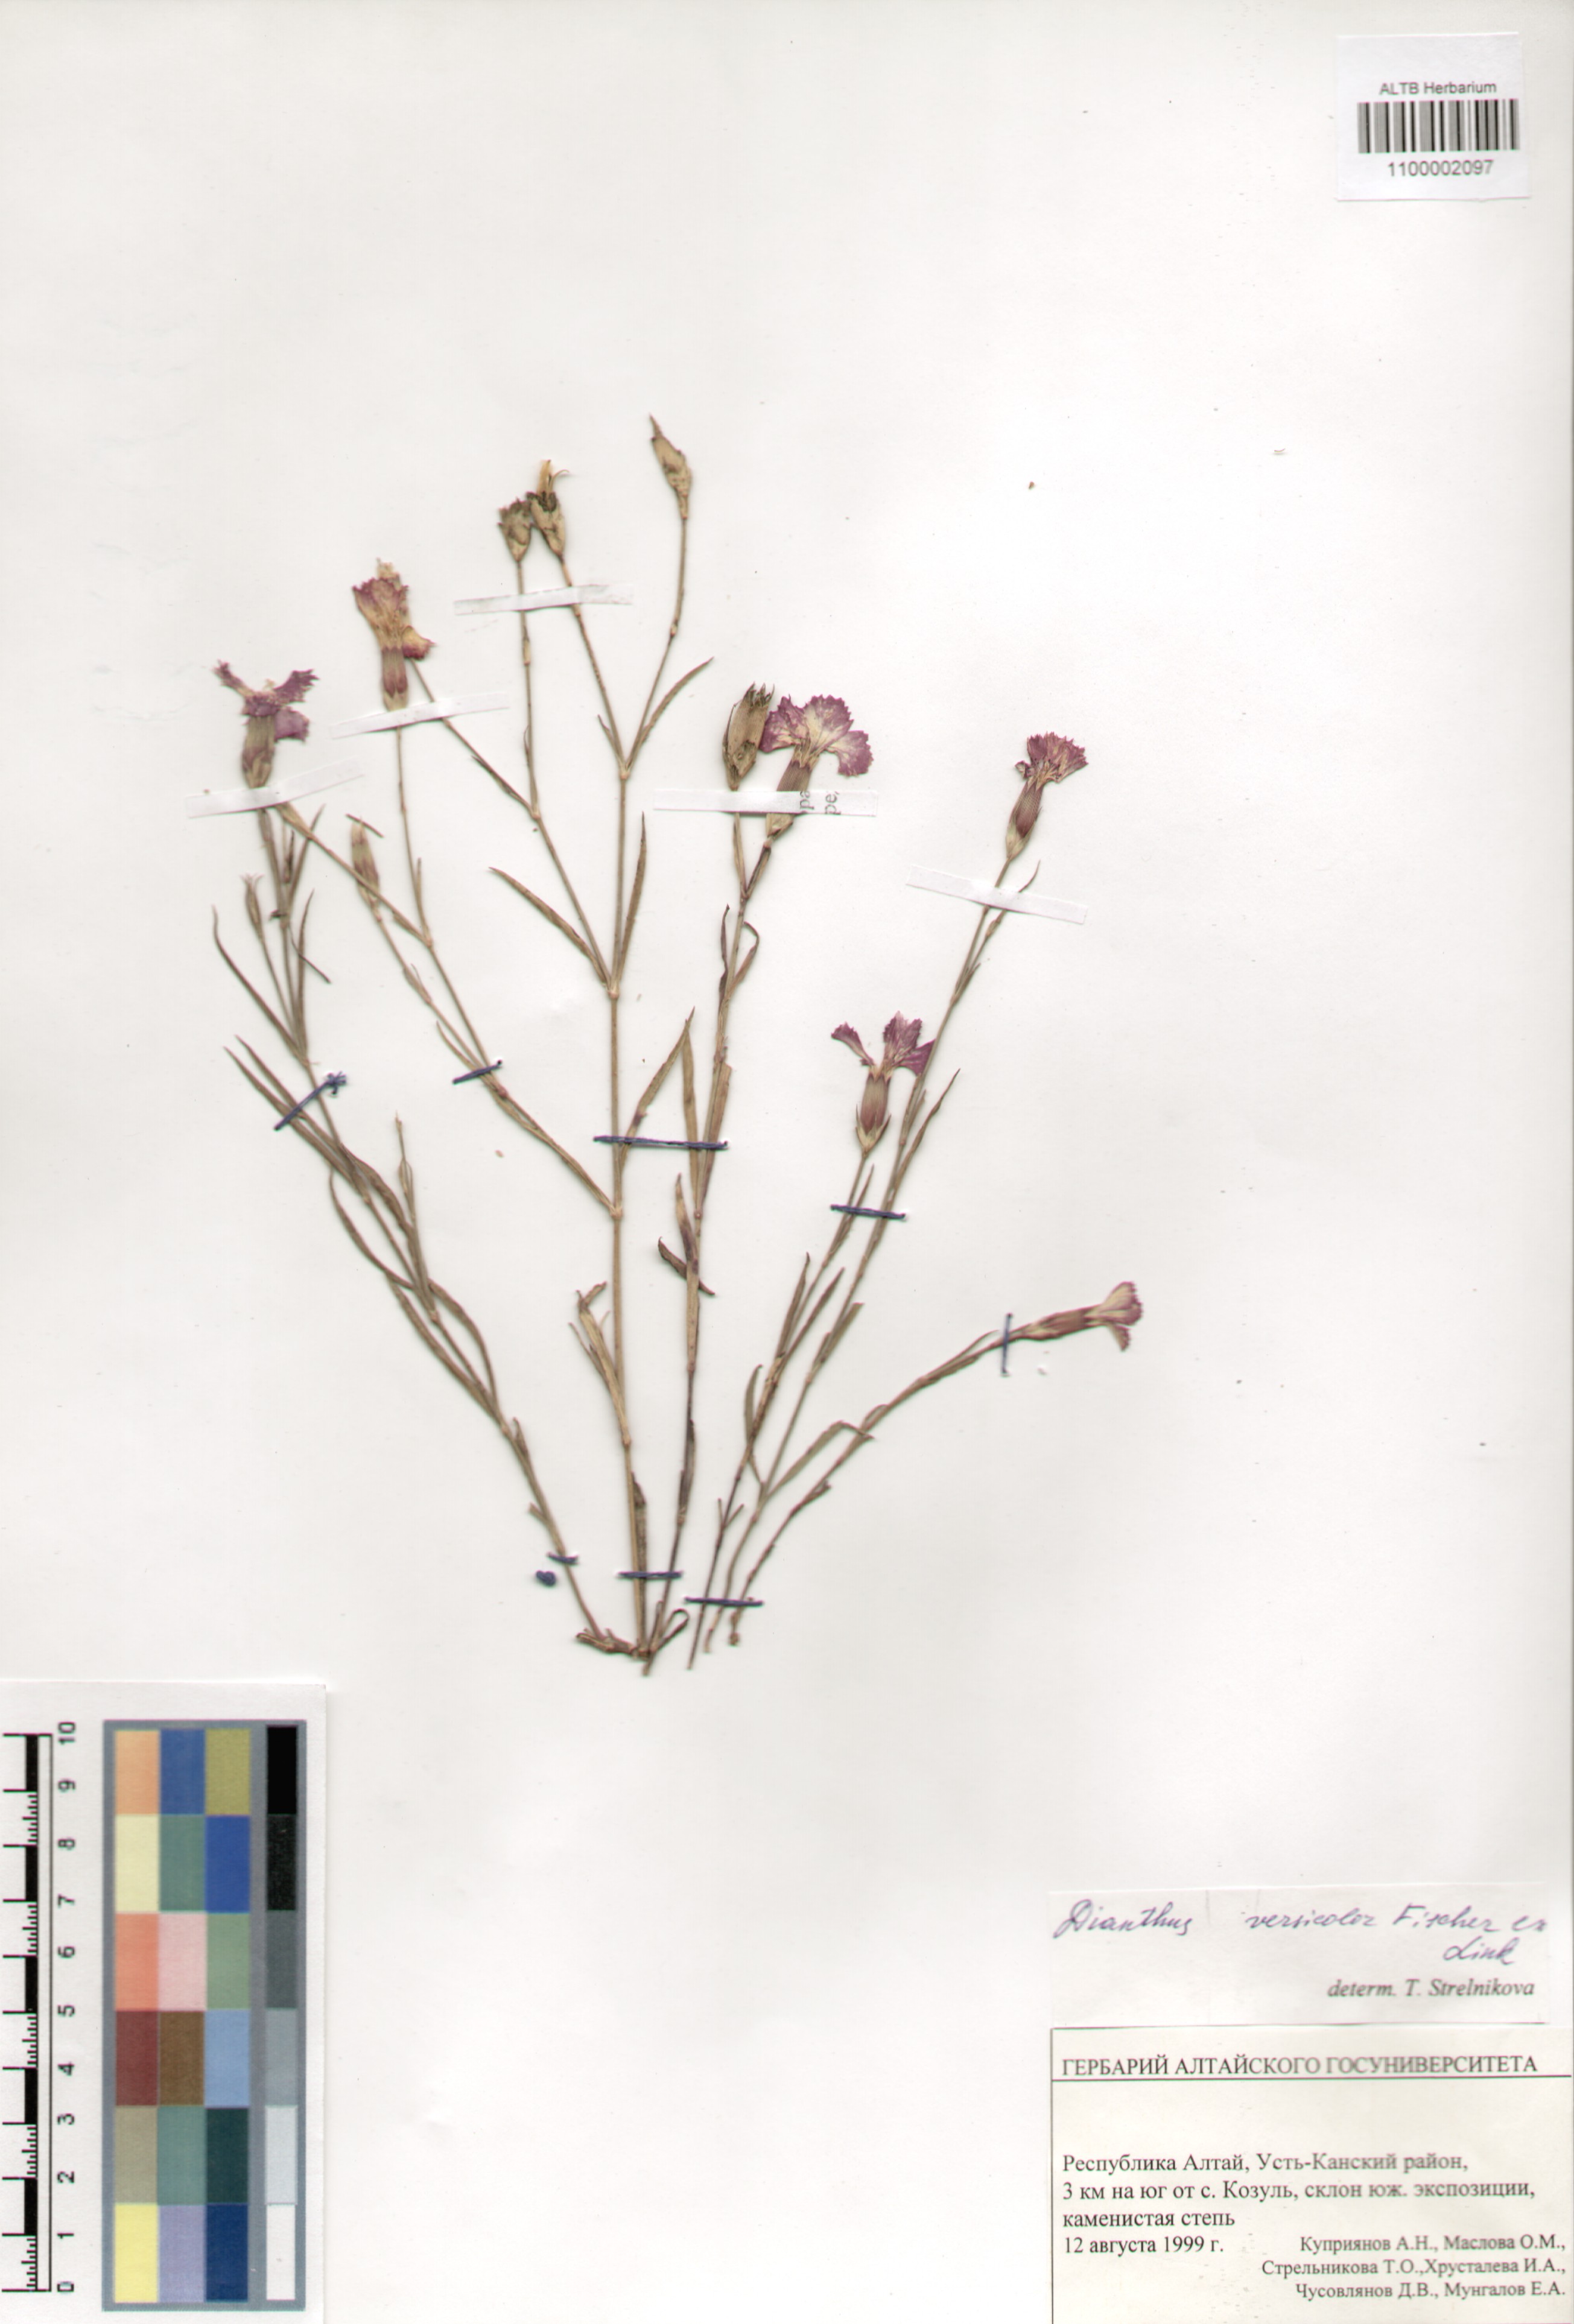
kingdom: Plantae
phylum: Tracheophyta
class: Magnoliopsida
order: Caryophyllales
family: Caryophyllaceae
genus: Dianthus
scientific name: Dianthus chinensis
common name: Rainbow pink
